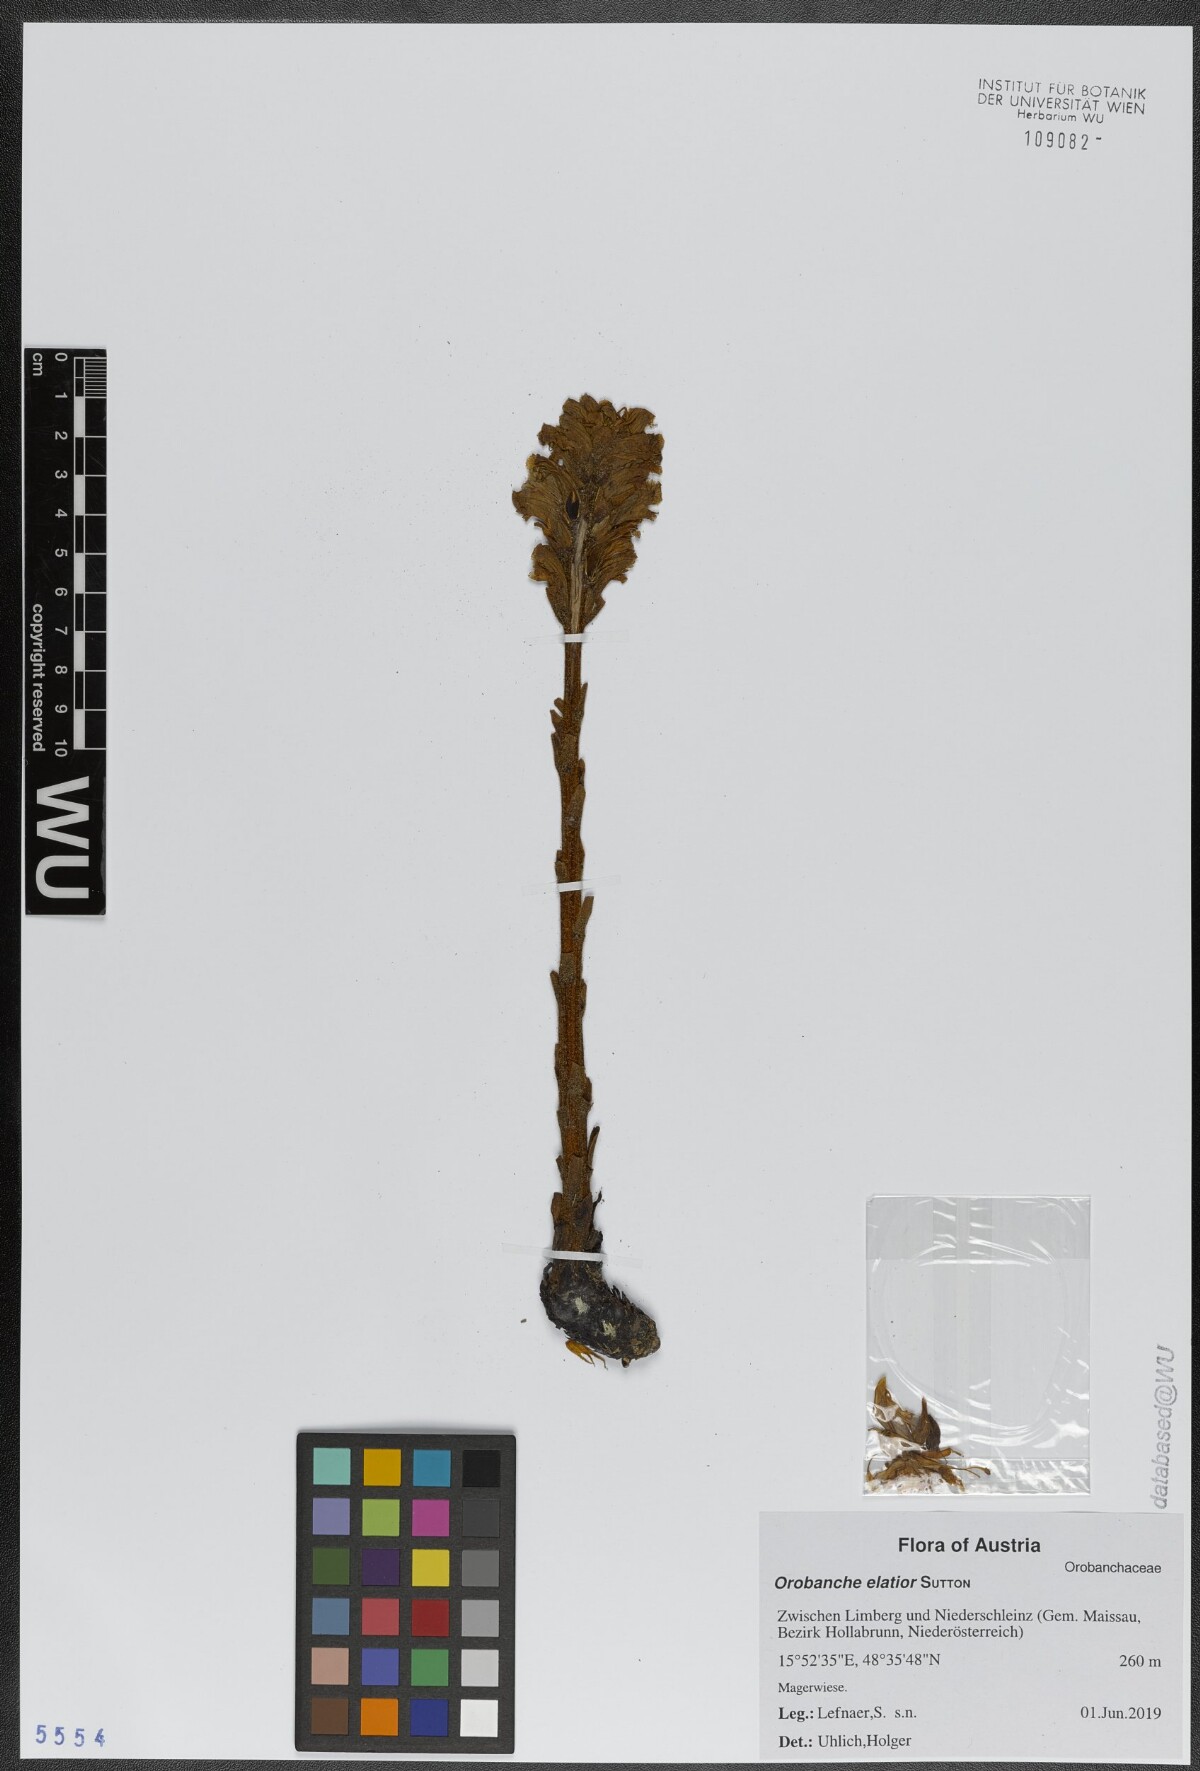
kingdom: Plantae
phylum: Tracheophyta
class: Magnoliopsida
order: Lamiales
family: Orobanchaceae
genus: Orobanche
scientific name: Orobanche elatior
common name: Knapweed broomrape
